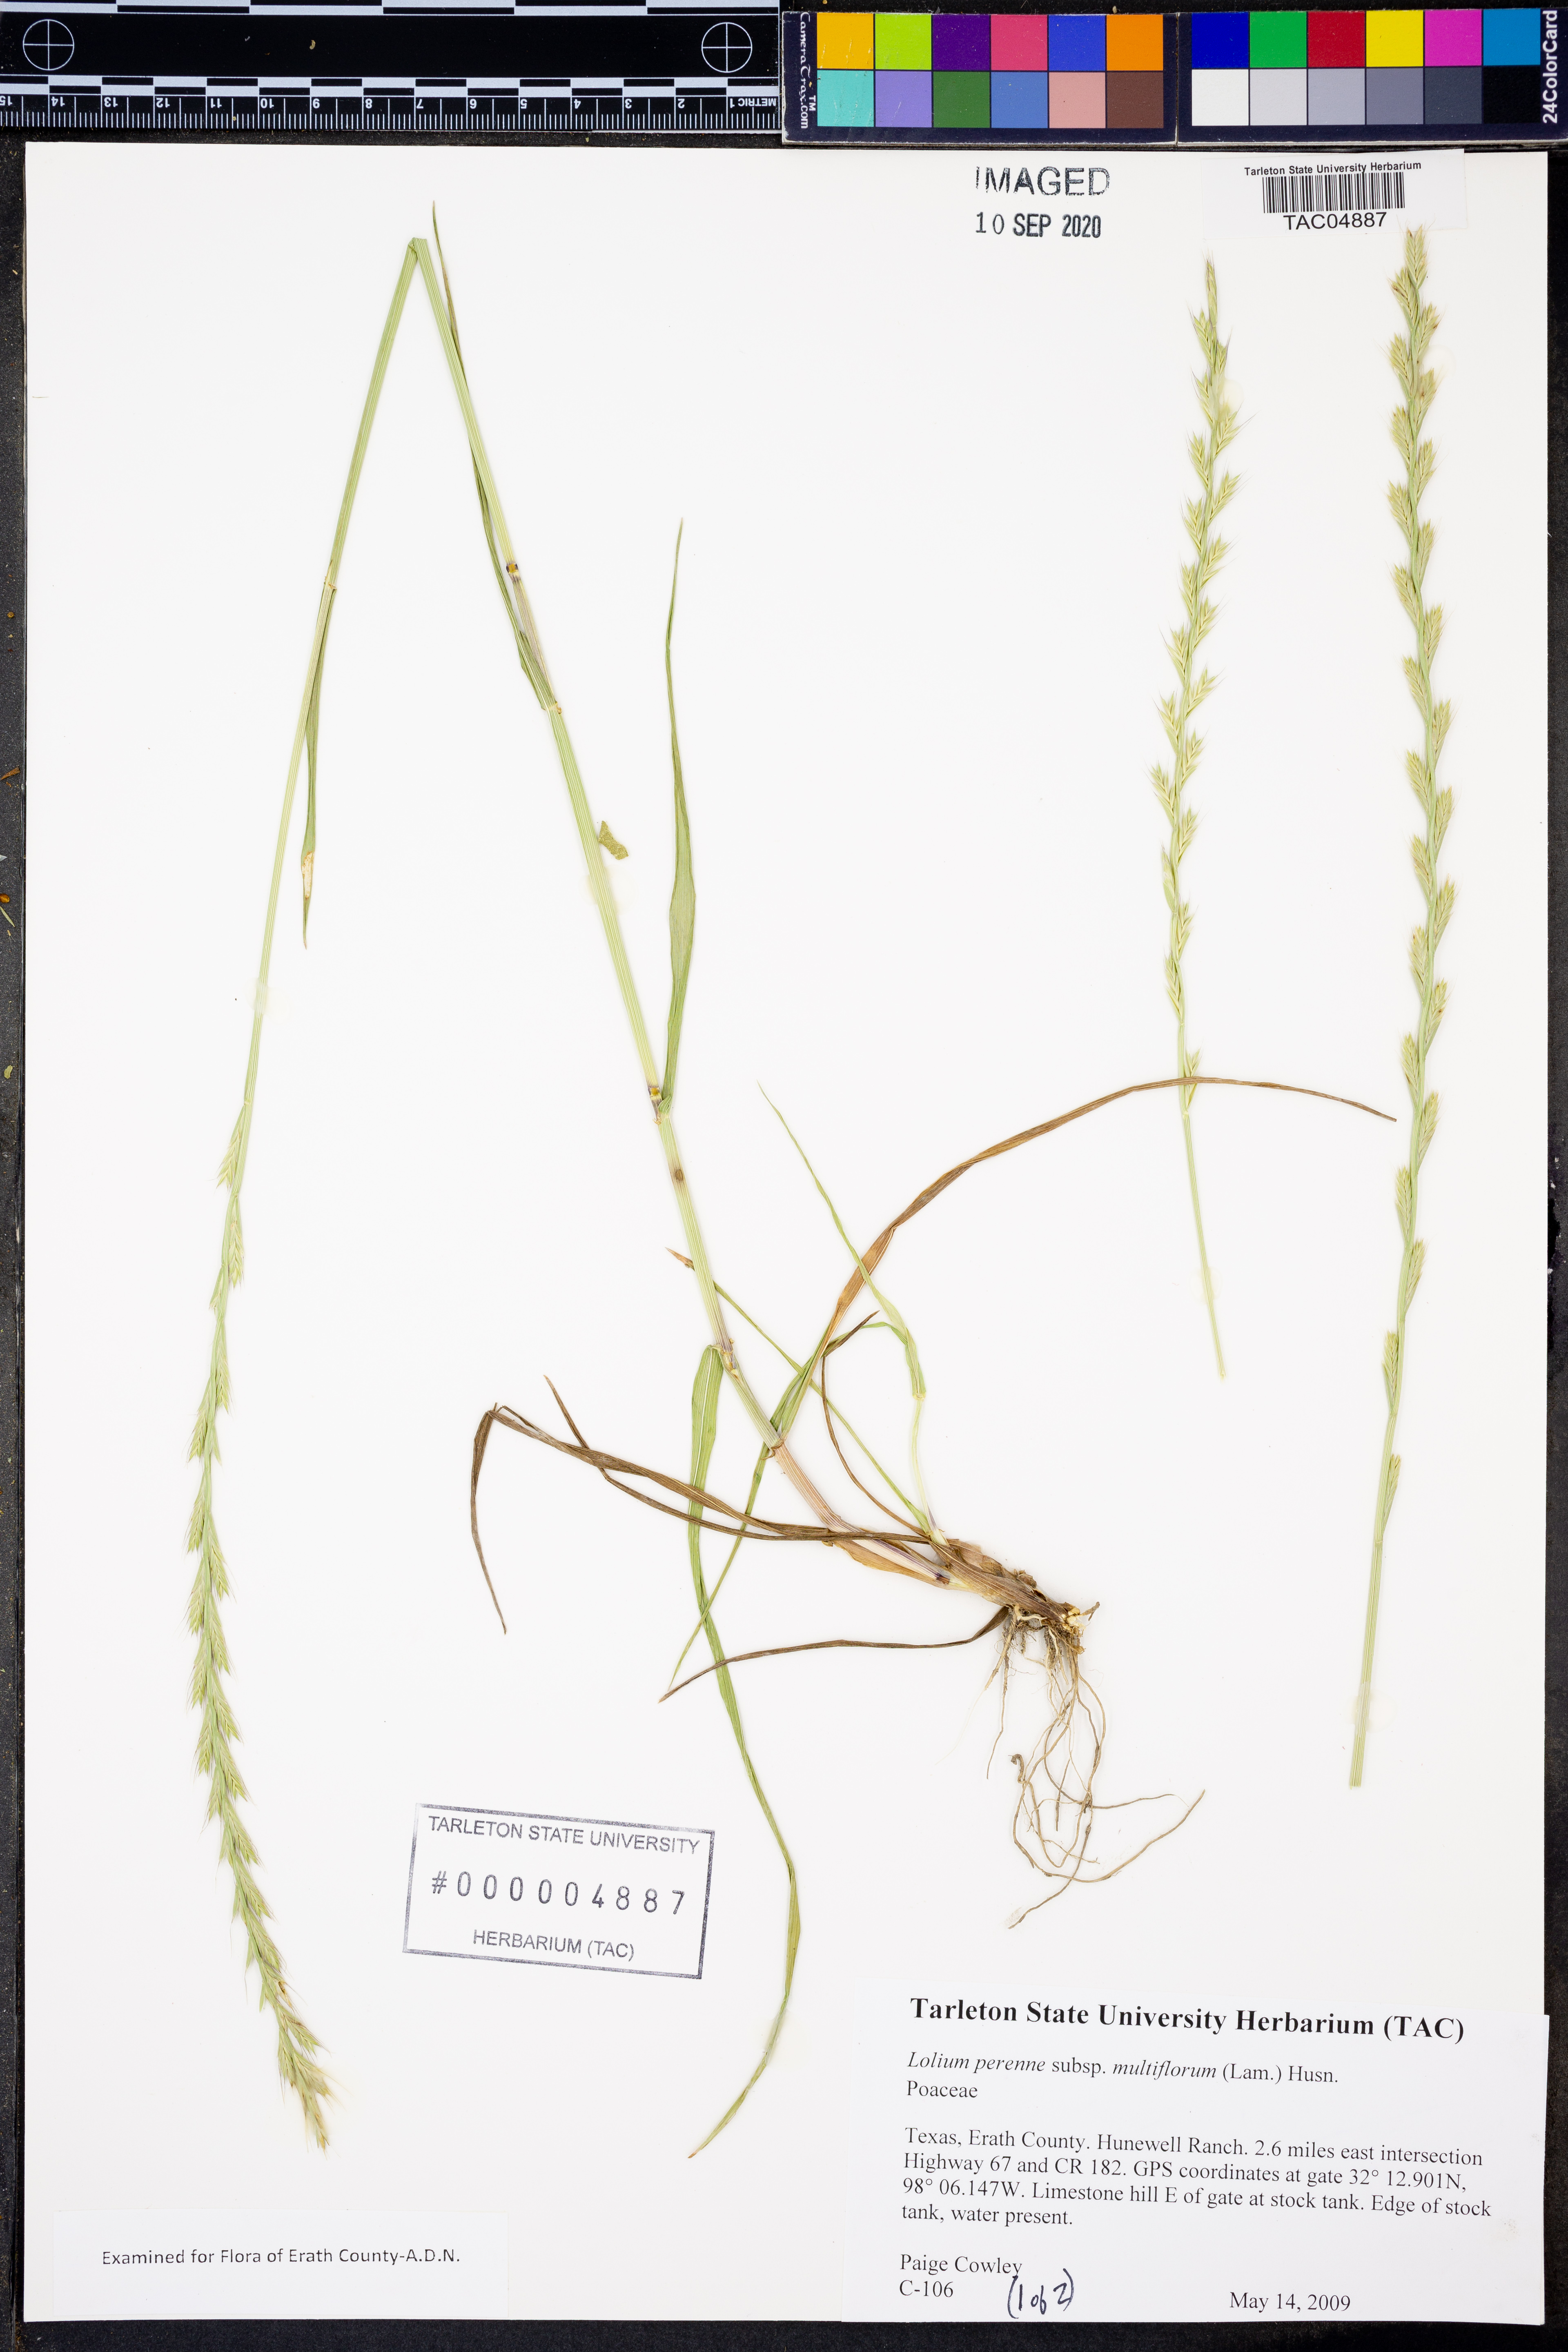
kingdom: Plantae
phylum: Tracheophyta
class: Liliopsida
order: Poales
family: Poaceae
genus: Lolium
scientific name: Lolium multiflorum
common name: Annual ryegrass
